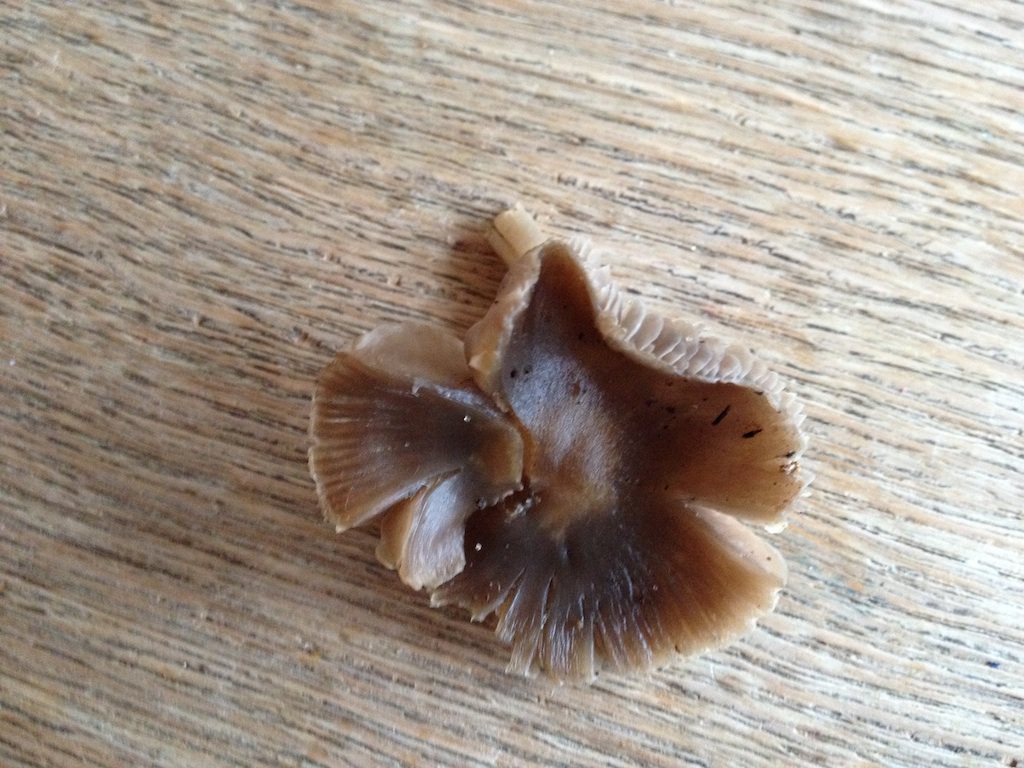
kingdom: Fungi
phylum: Basidiomycota
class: Agaricomycetes
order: Agaricales
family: Tricholomataceae
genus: Dermoloma
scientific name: Dermoloma cuneifolium
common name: eng-nonnehat
